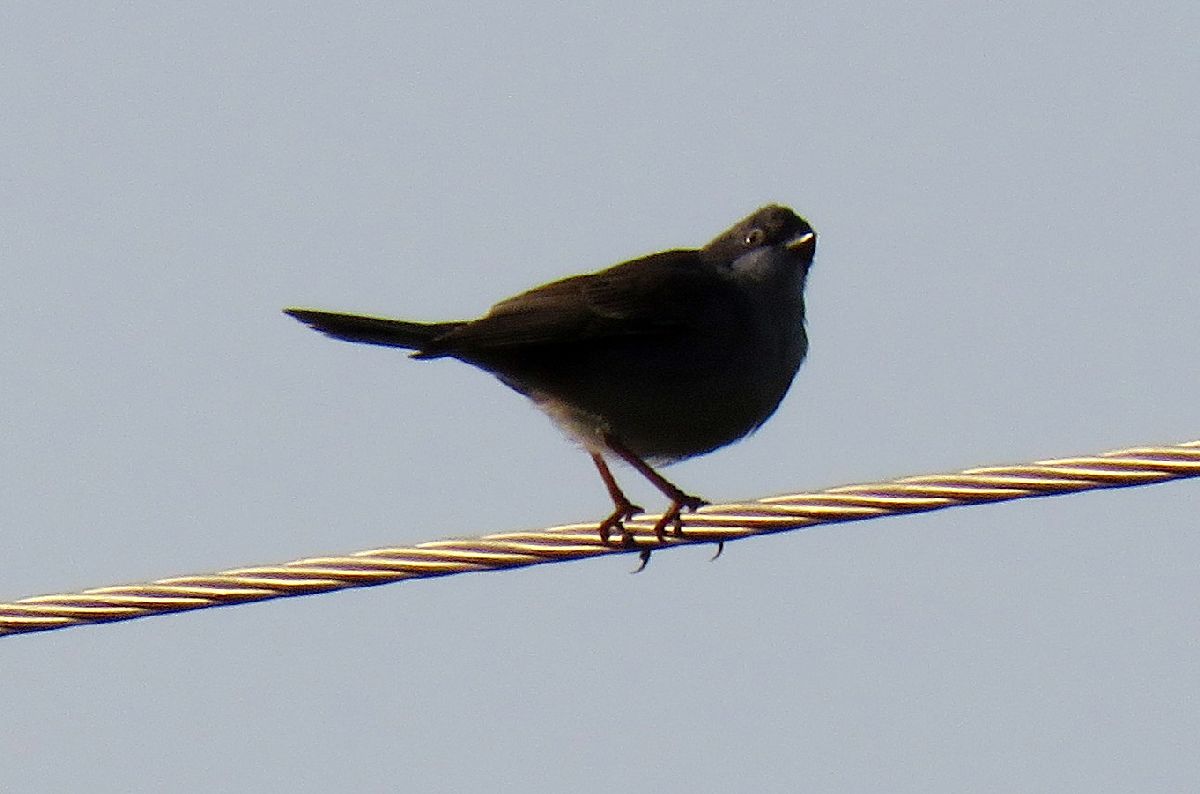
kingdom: Animalia
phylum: Chordata
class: Aves
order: Passeriformes
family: Sylviidae
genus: Sylvia
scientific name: Sylvia communis
